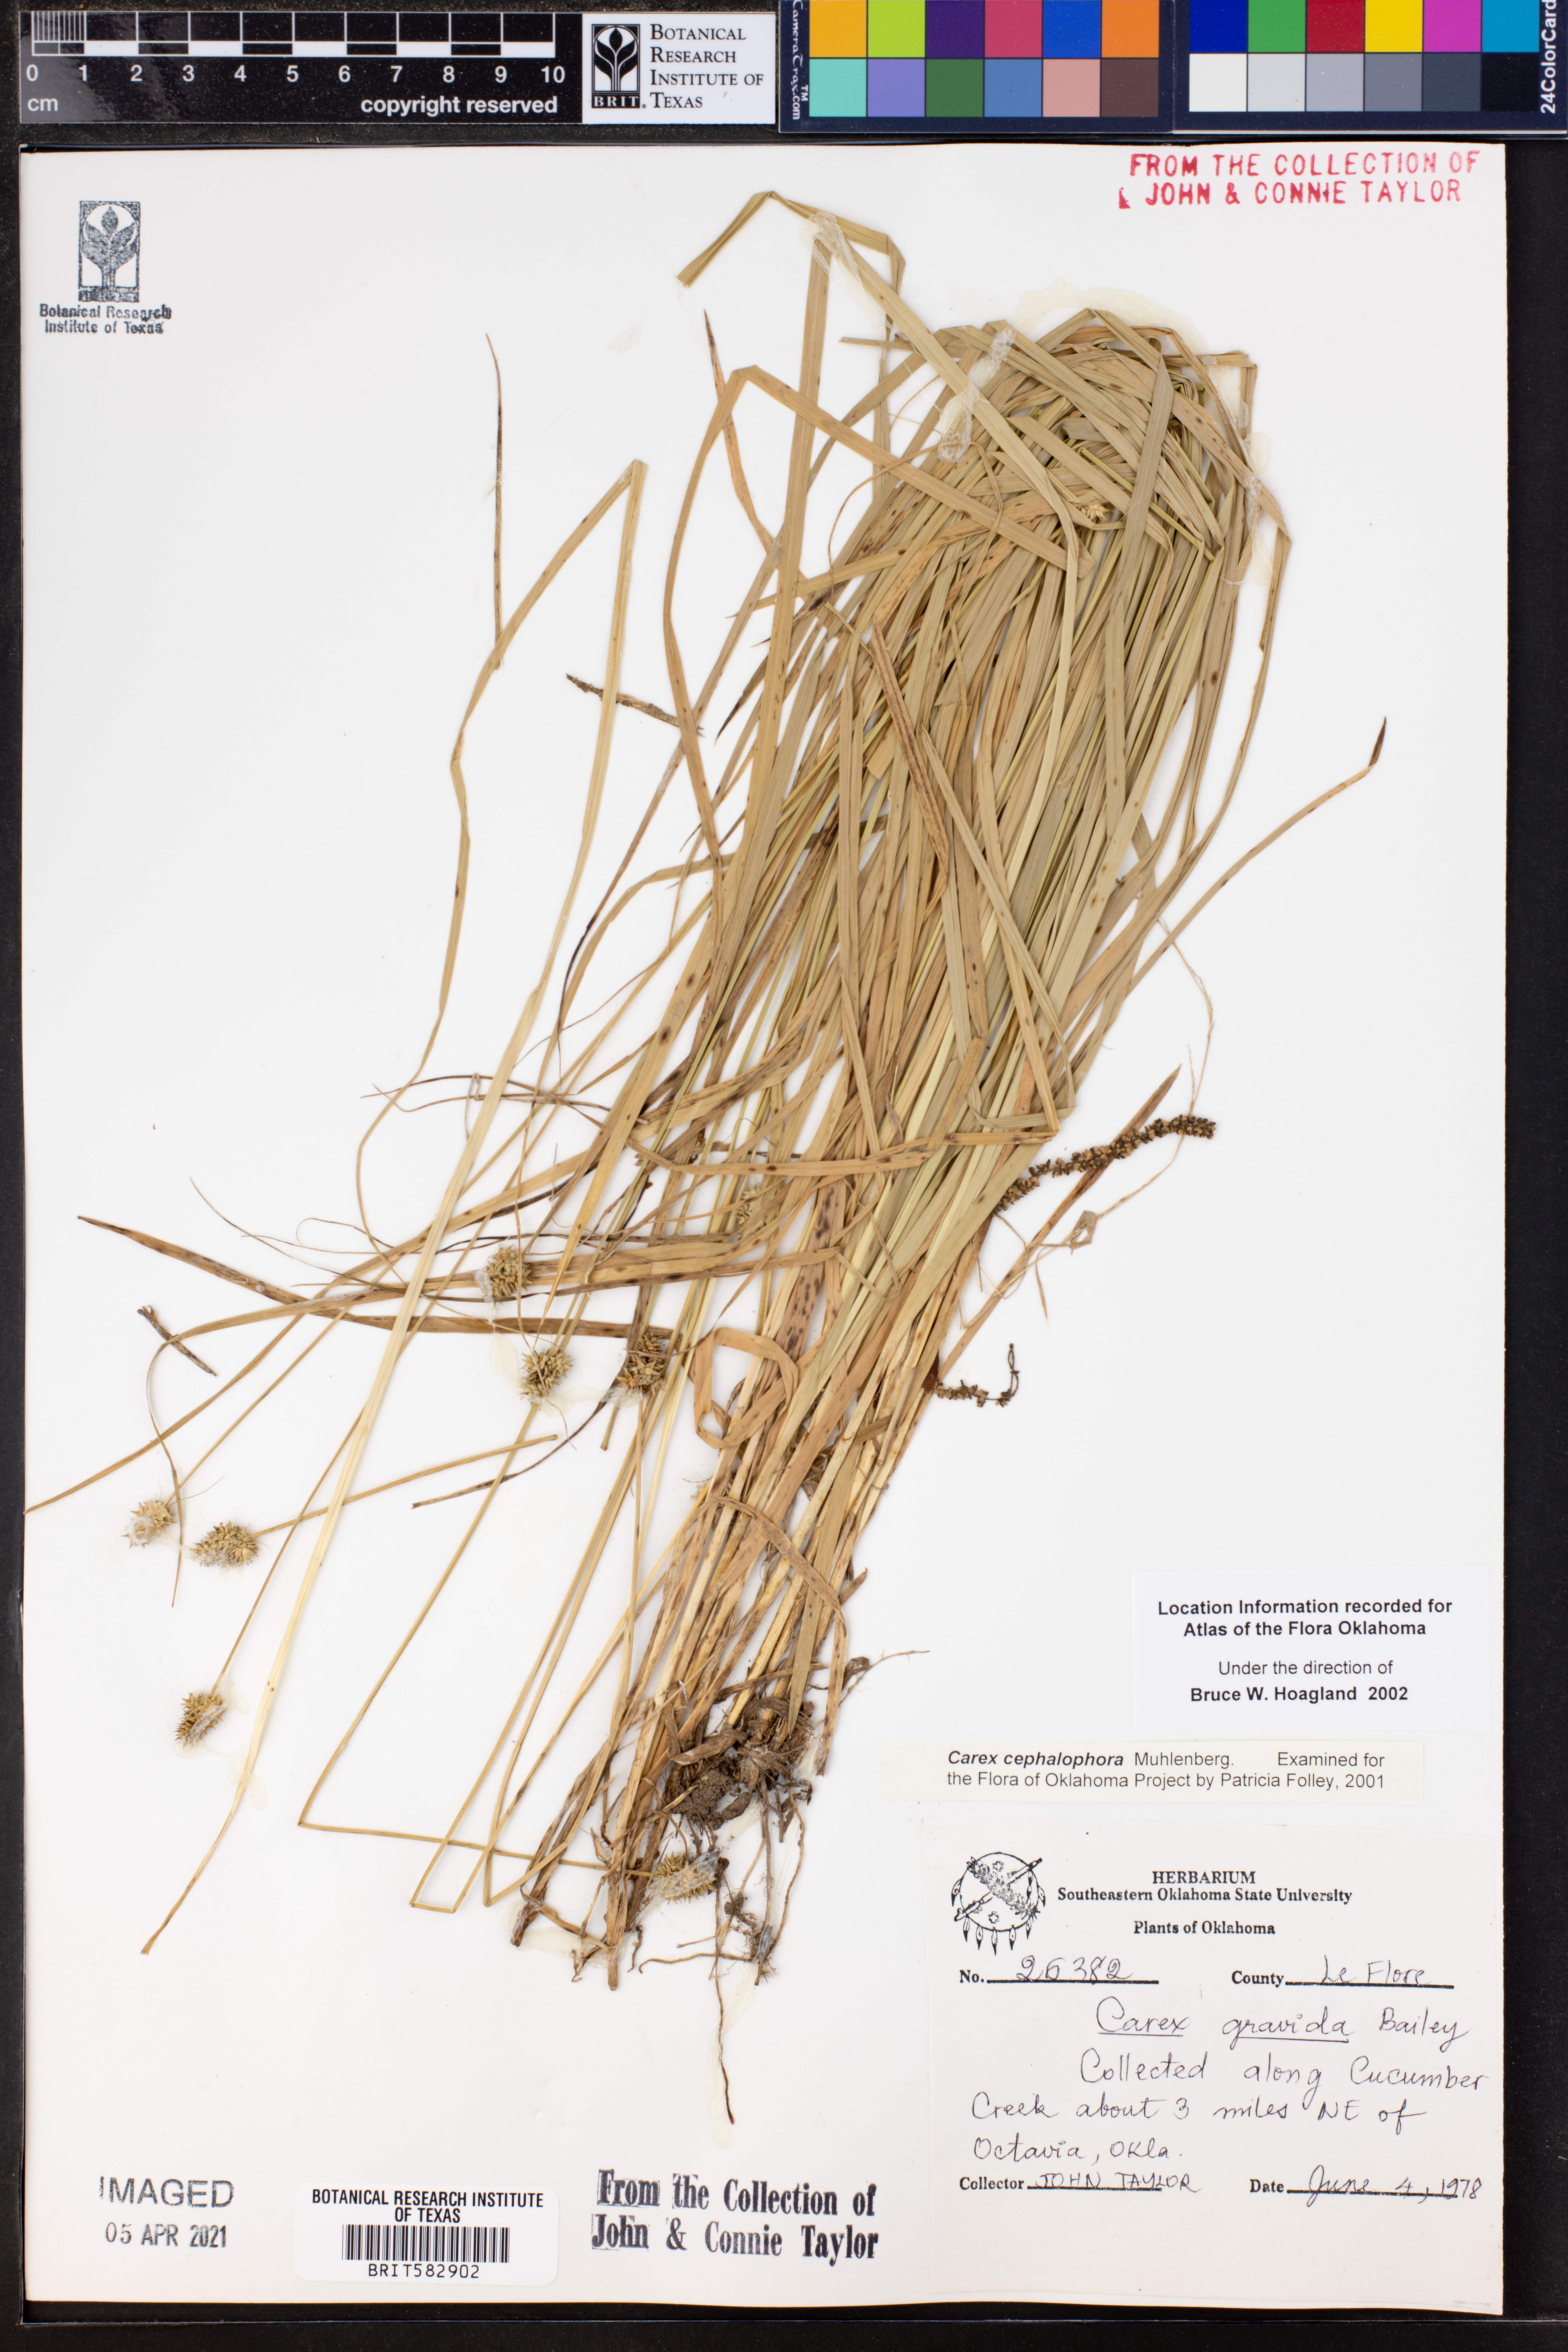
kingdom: Plantae
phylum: Tracheophyta
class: Liliopsida
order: Poales
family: Cyperaceae
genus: Carex
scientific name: Carex cephalophora
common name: Oval-headed sedge
